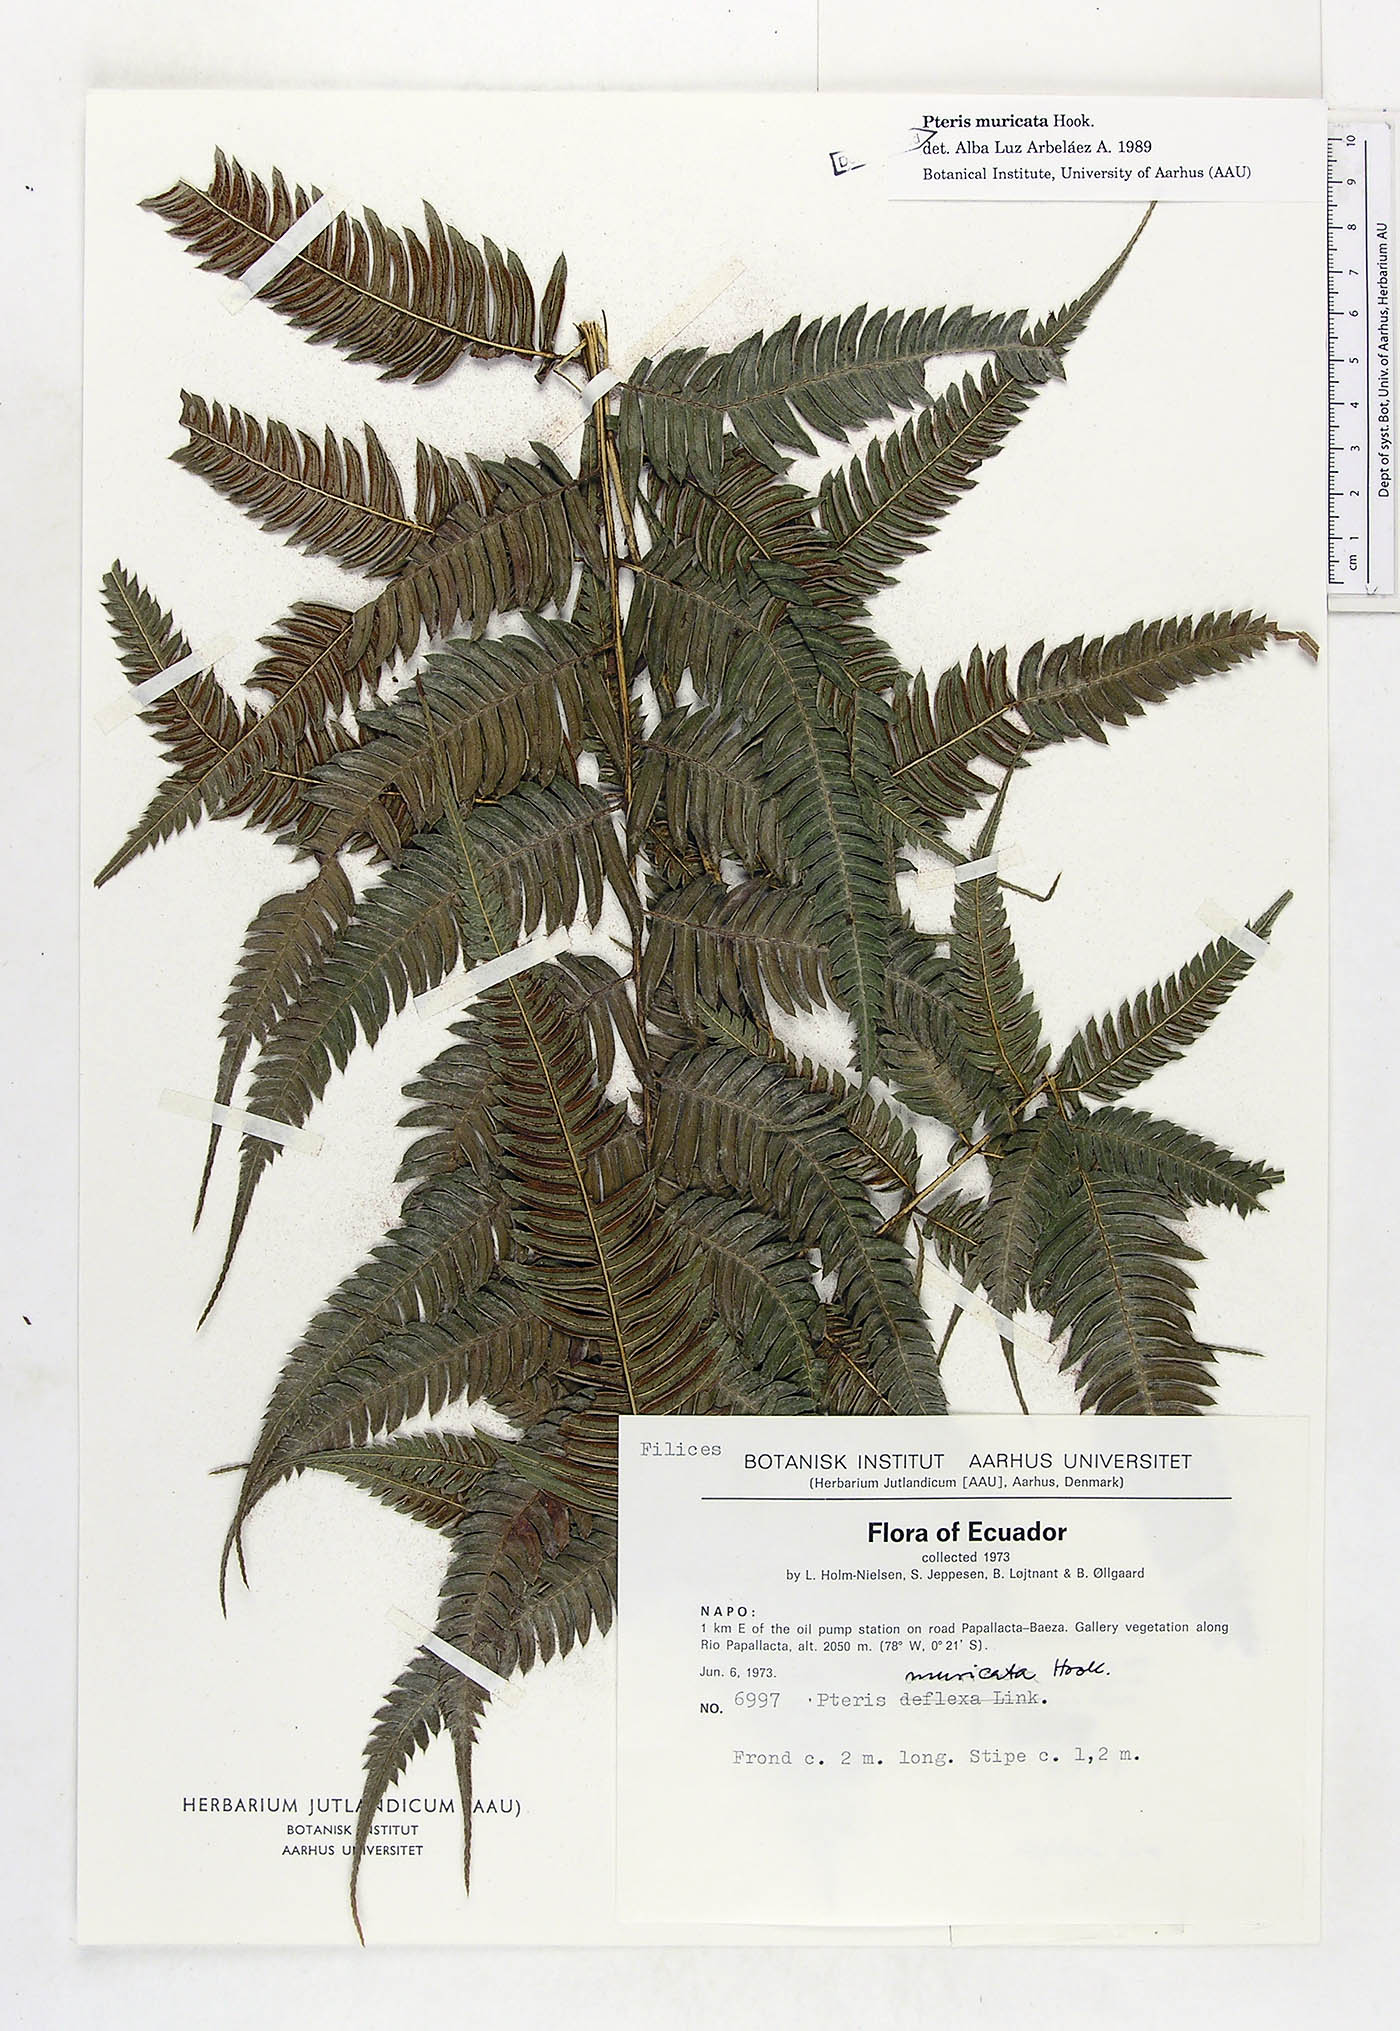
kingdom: Plantae
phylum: Tracheophyta
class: Polypodiopsida
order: Polypodiales
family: Pteridaceae
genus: Pteris
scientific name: Pteris muricata
